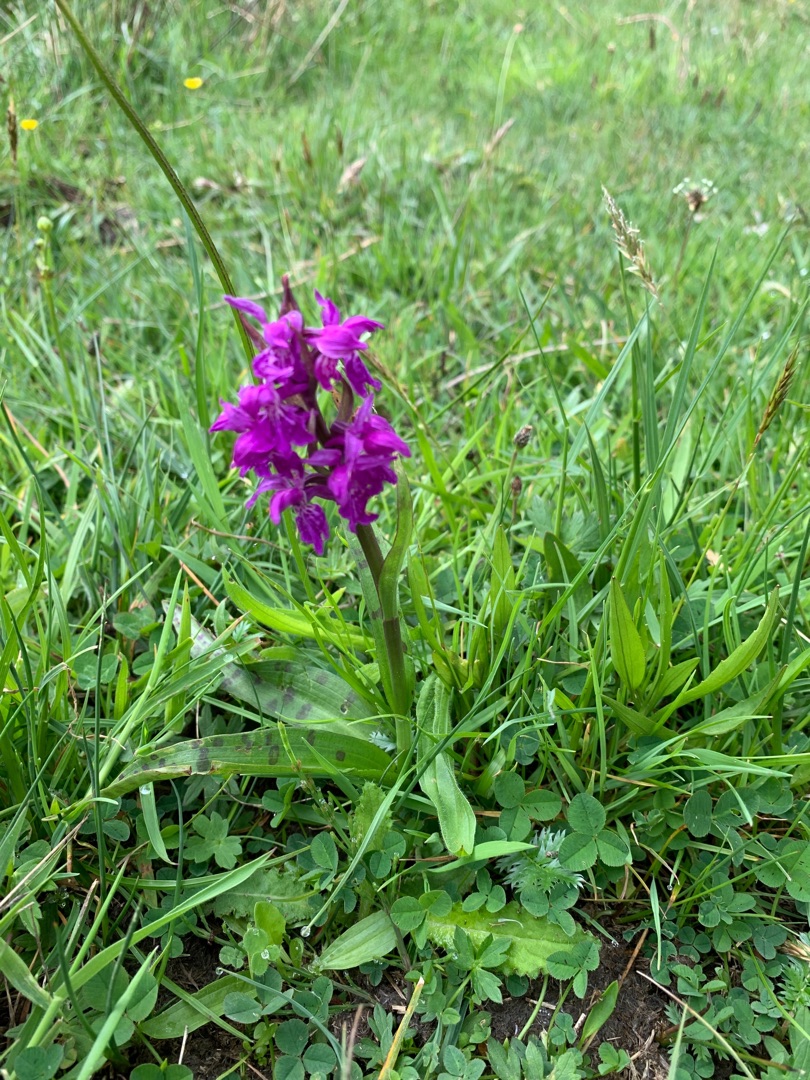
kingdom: Plantae
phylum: Tracheophyta
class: Liliopsida
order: Asparagales
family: Orchidaceae
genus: Dactylorhiza
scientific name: Dactylorhiza majalis
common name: Maj-gøgeurt
